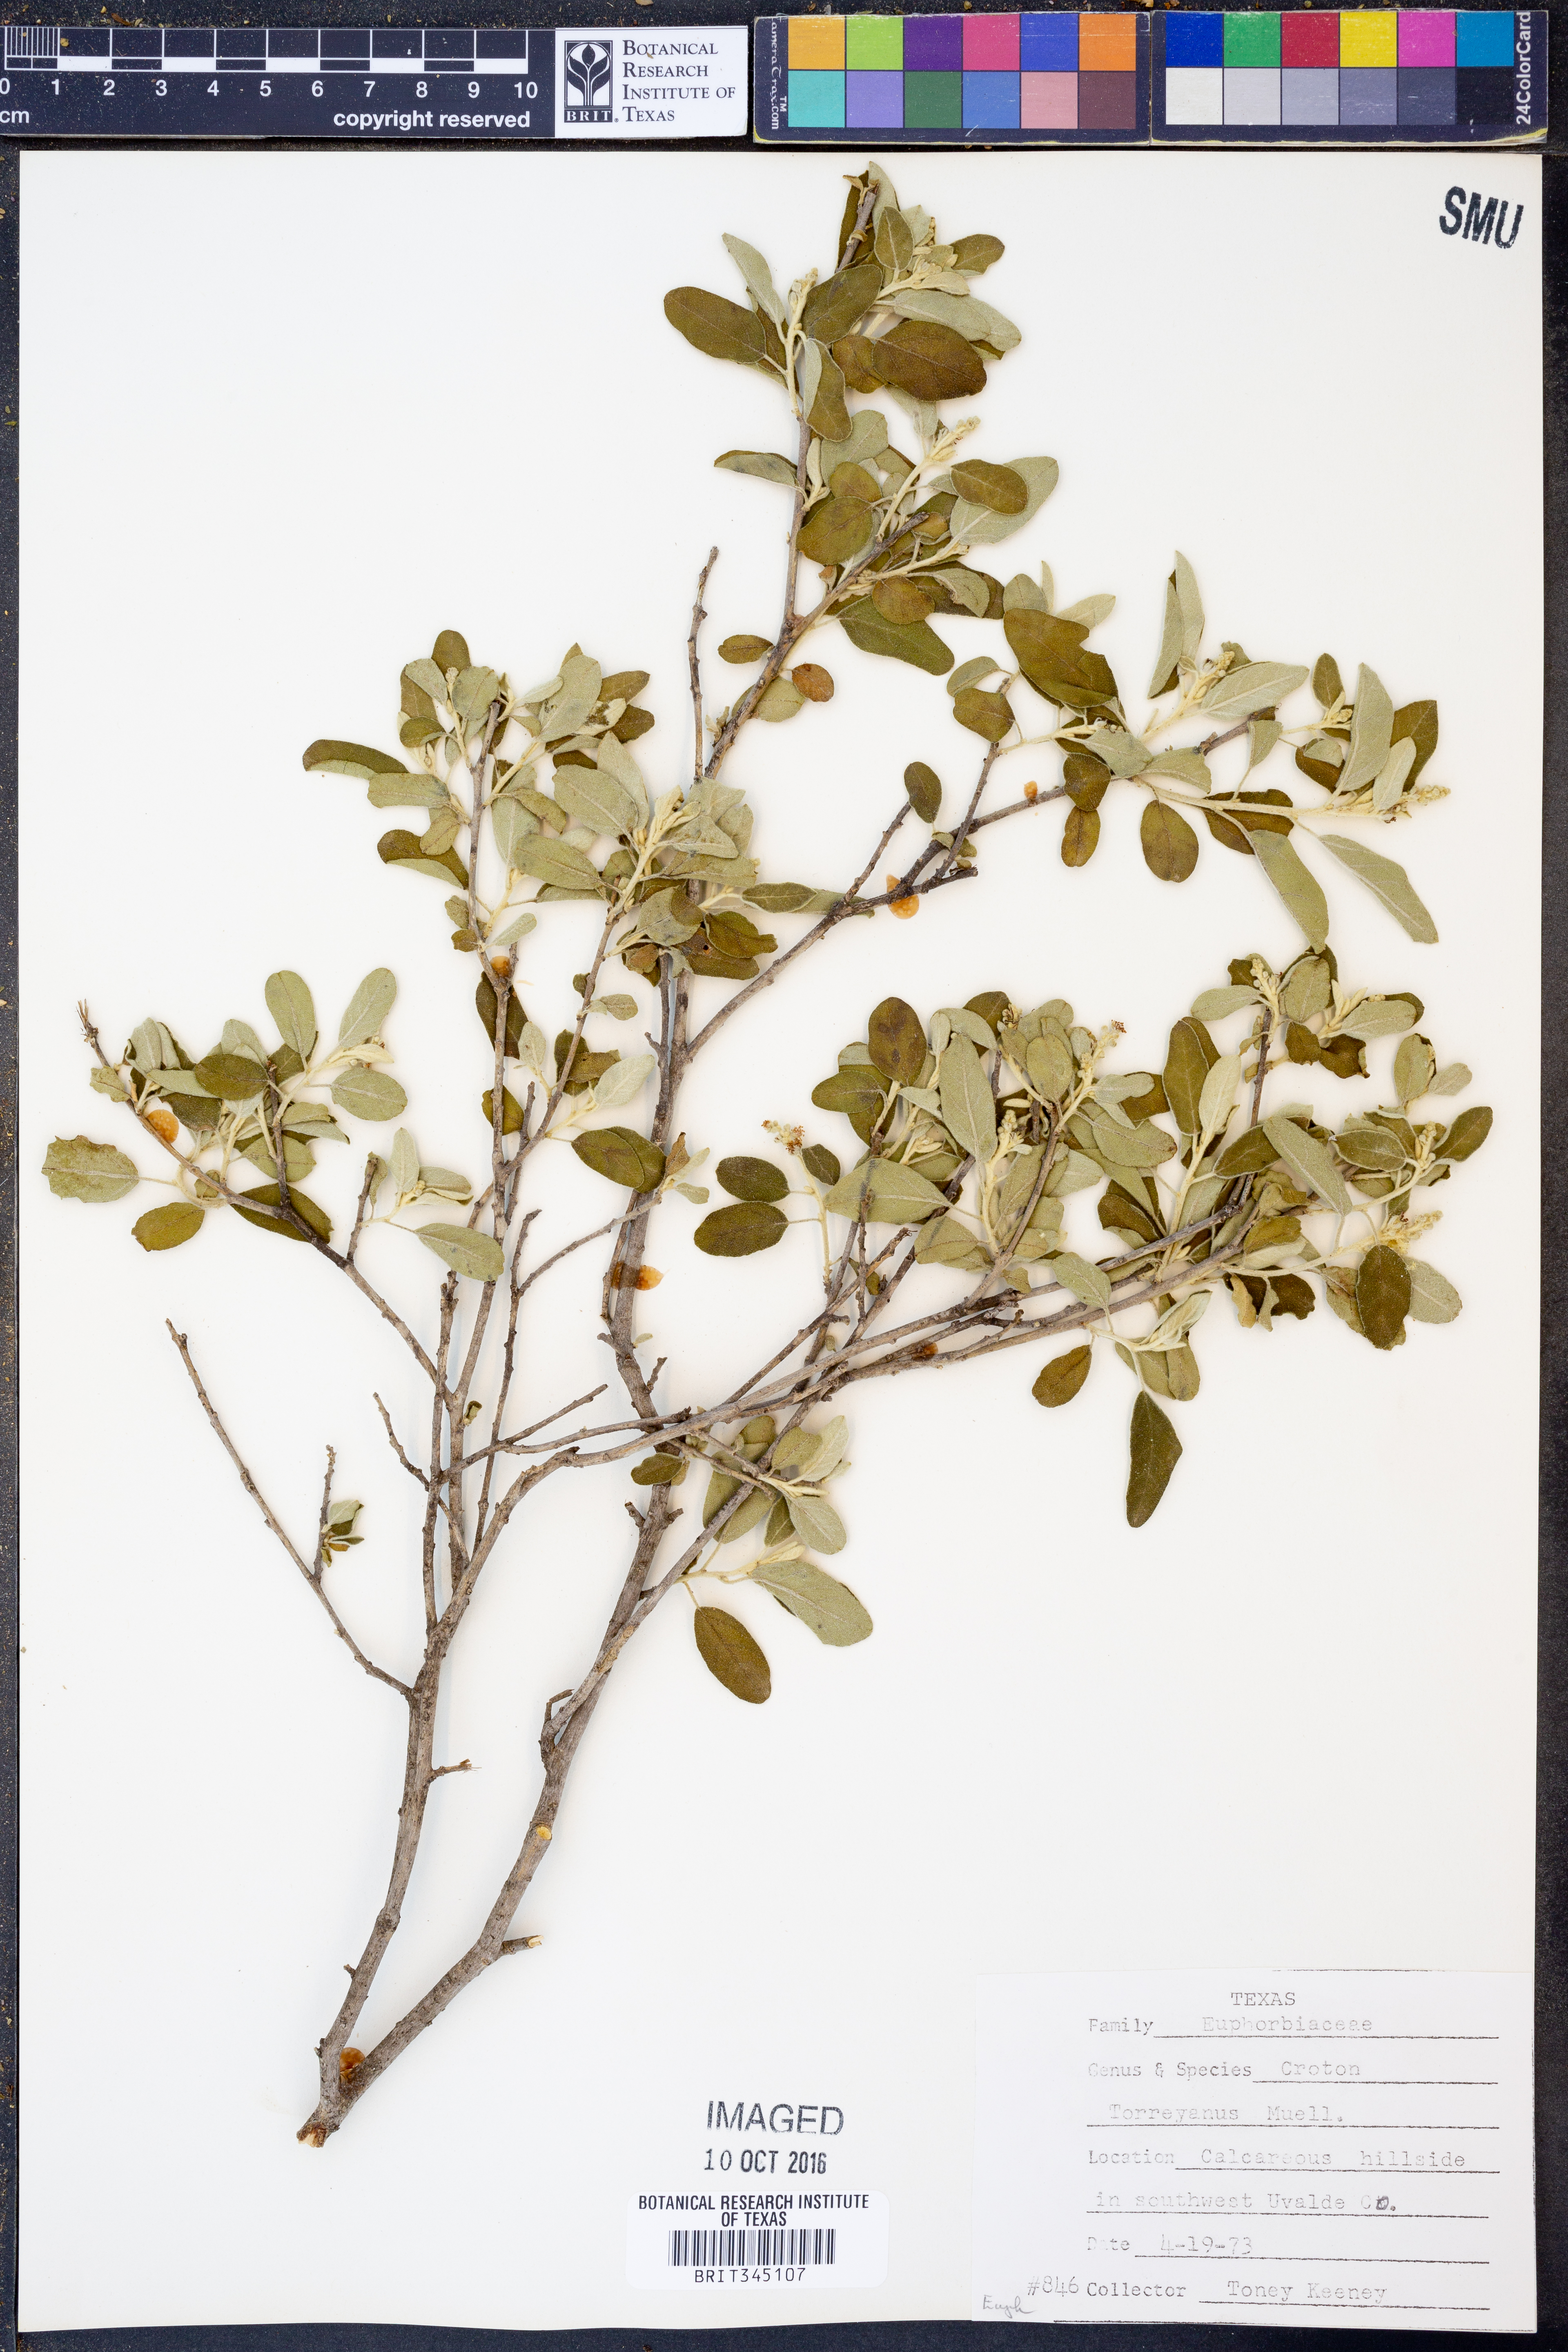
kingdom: Plantae
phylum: Tracheophyta
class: Magnoliopsida
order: Malpighiales
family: Euphorbiaceae
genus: Croton
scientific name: Croton incanus
